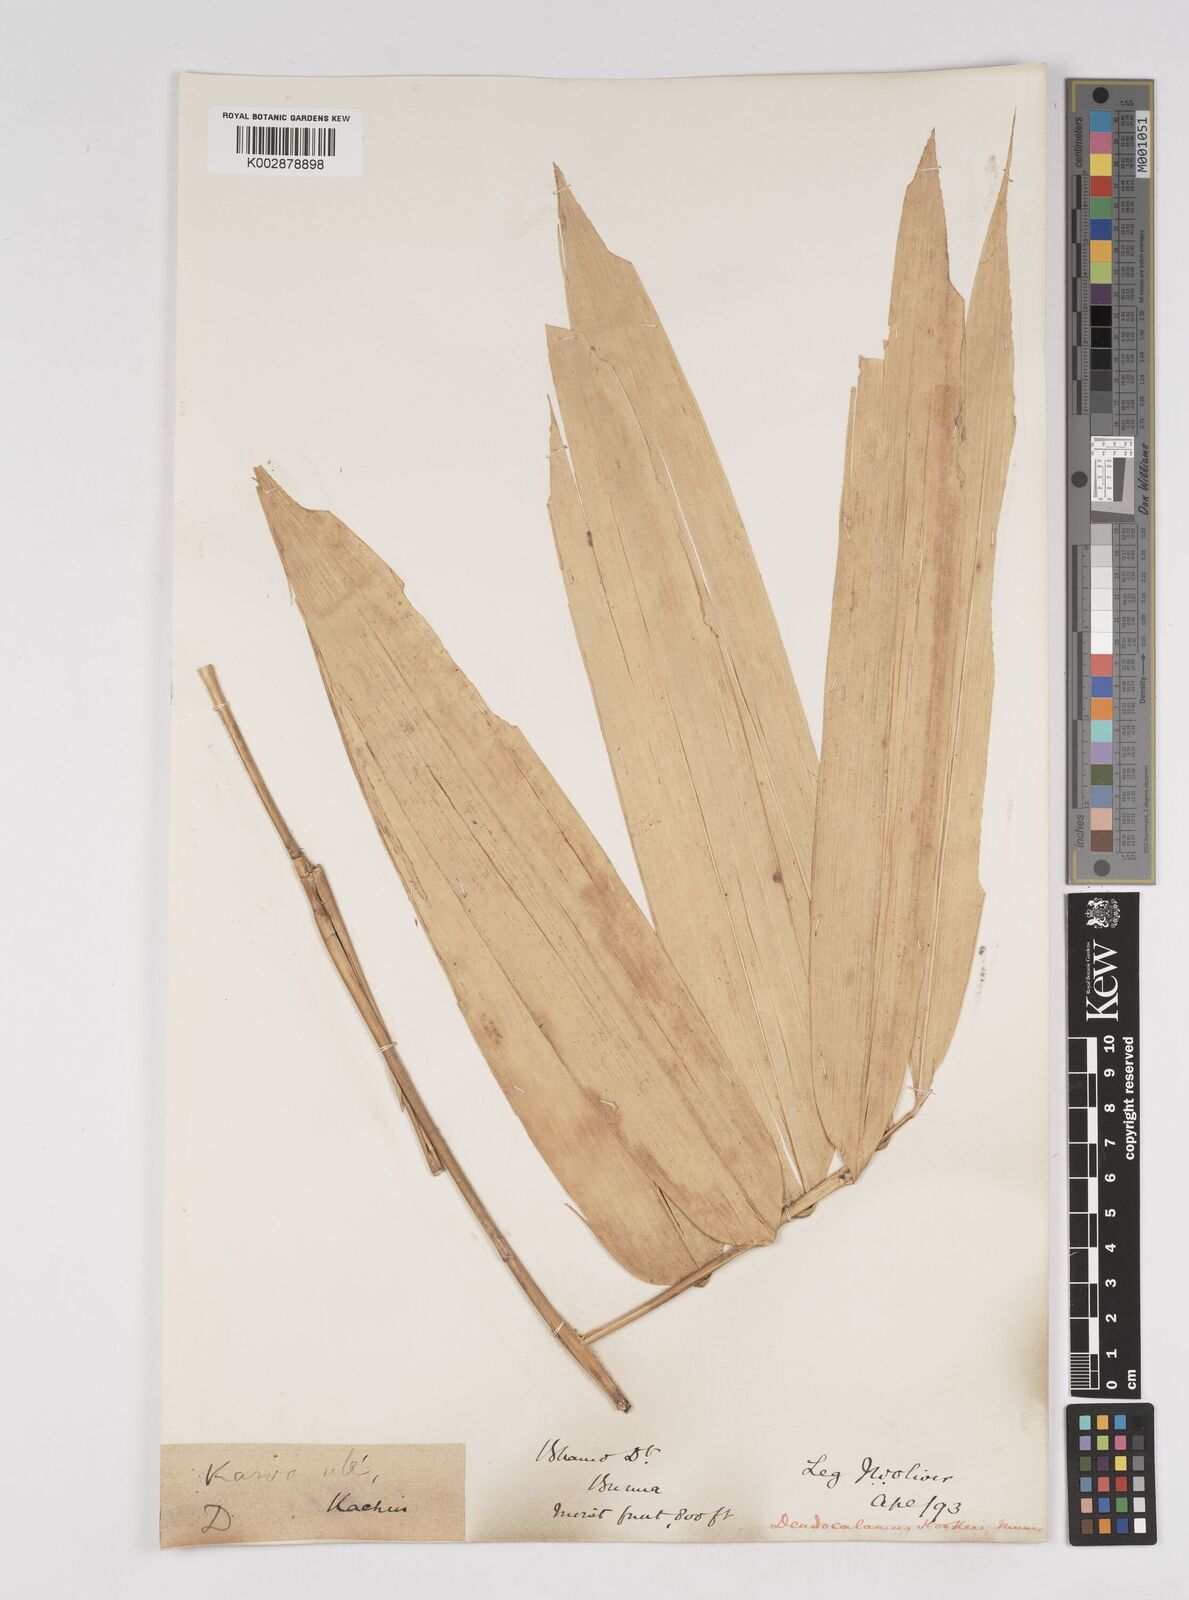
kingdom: Plantae
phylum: Tracheophyta
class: Liliopsida
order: Poales
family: Poaceae
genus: Dendrocalamus
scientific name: Dendrocalamus hookeri
